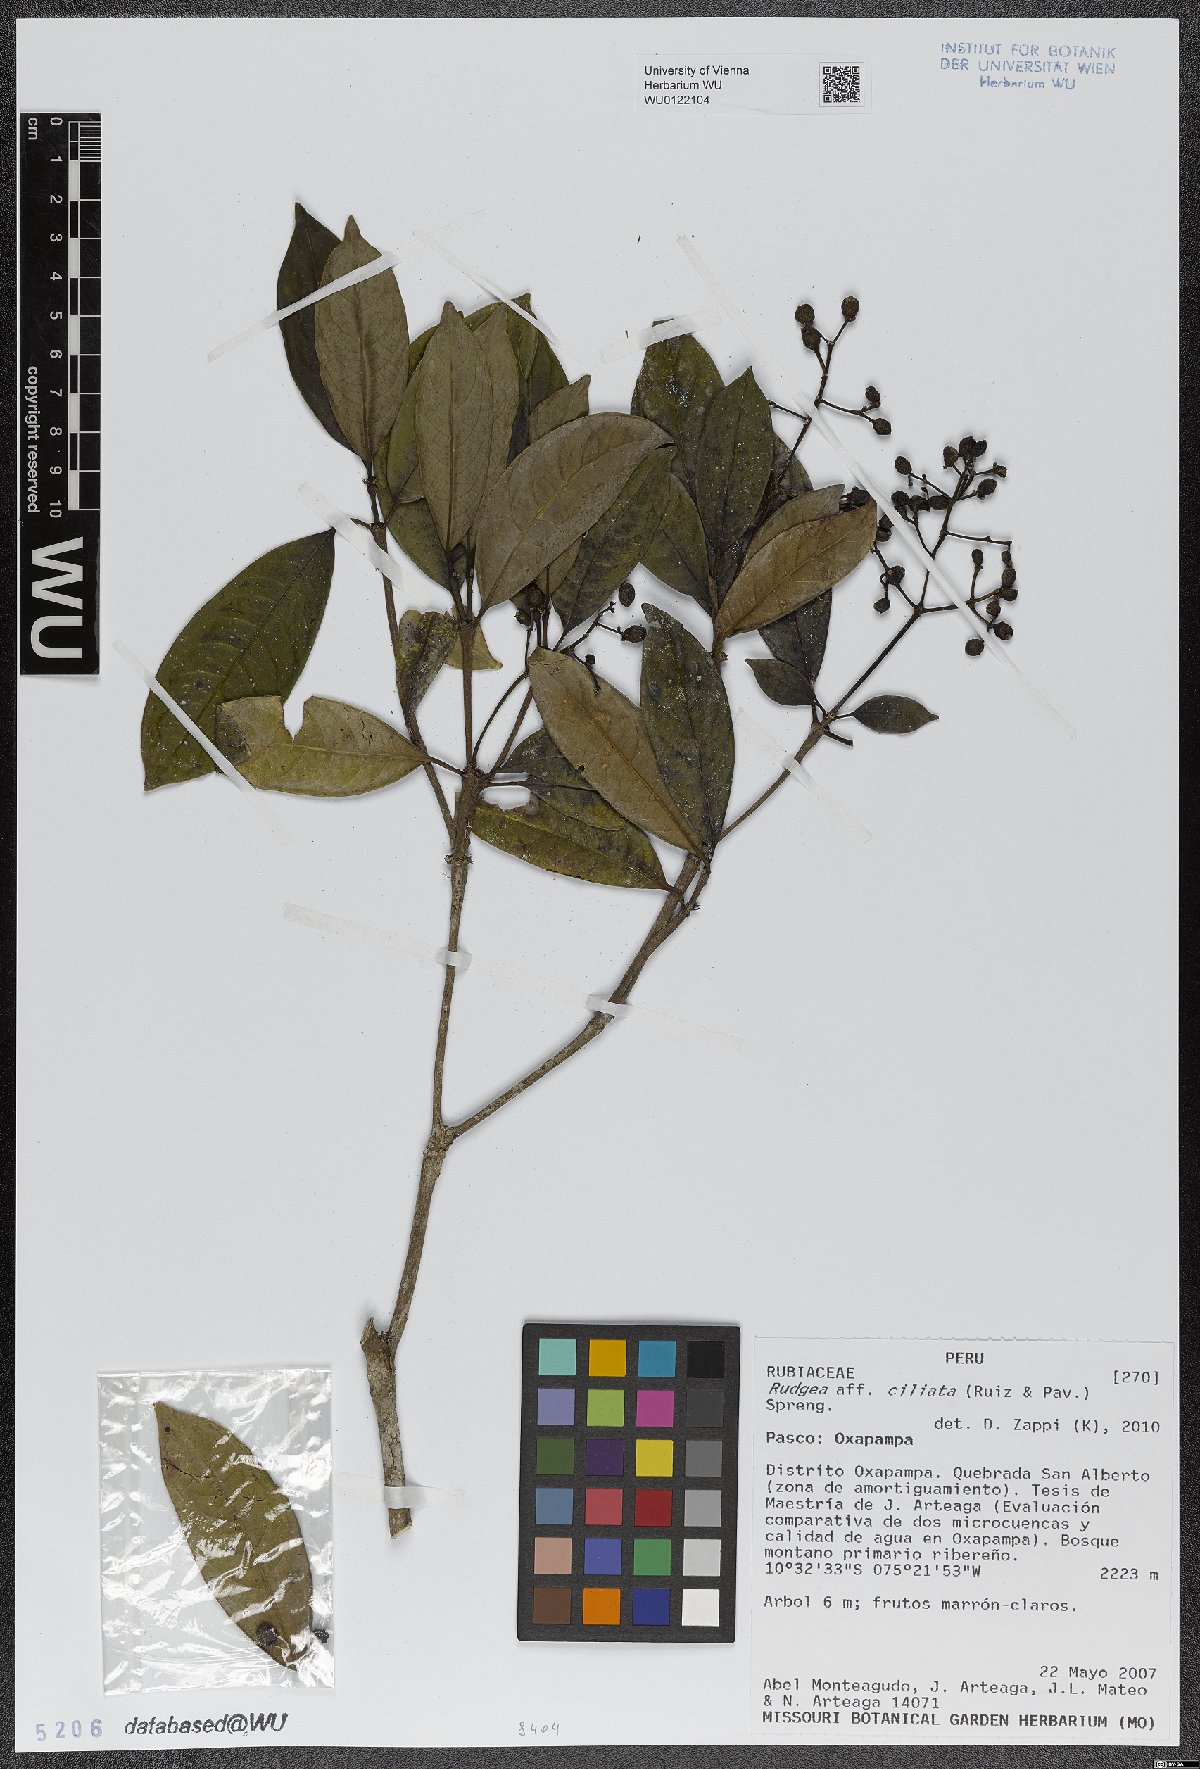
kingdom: Plantae
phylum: Tracheophyta
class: Magnoliopsida
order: Gentianales
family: Rubiaceae
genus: Rudgea
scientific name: Rudgea ciliata
